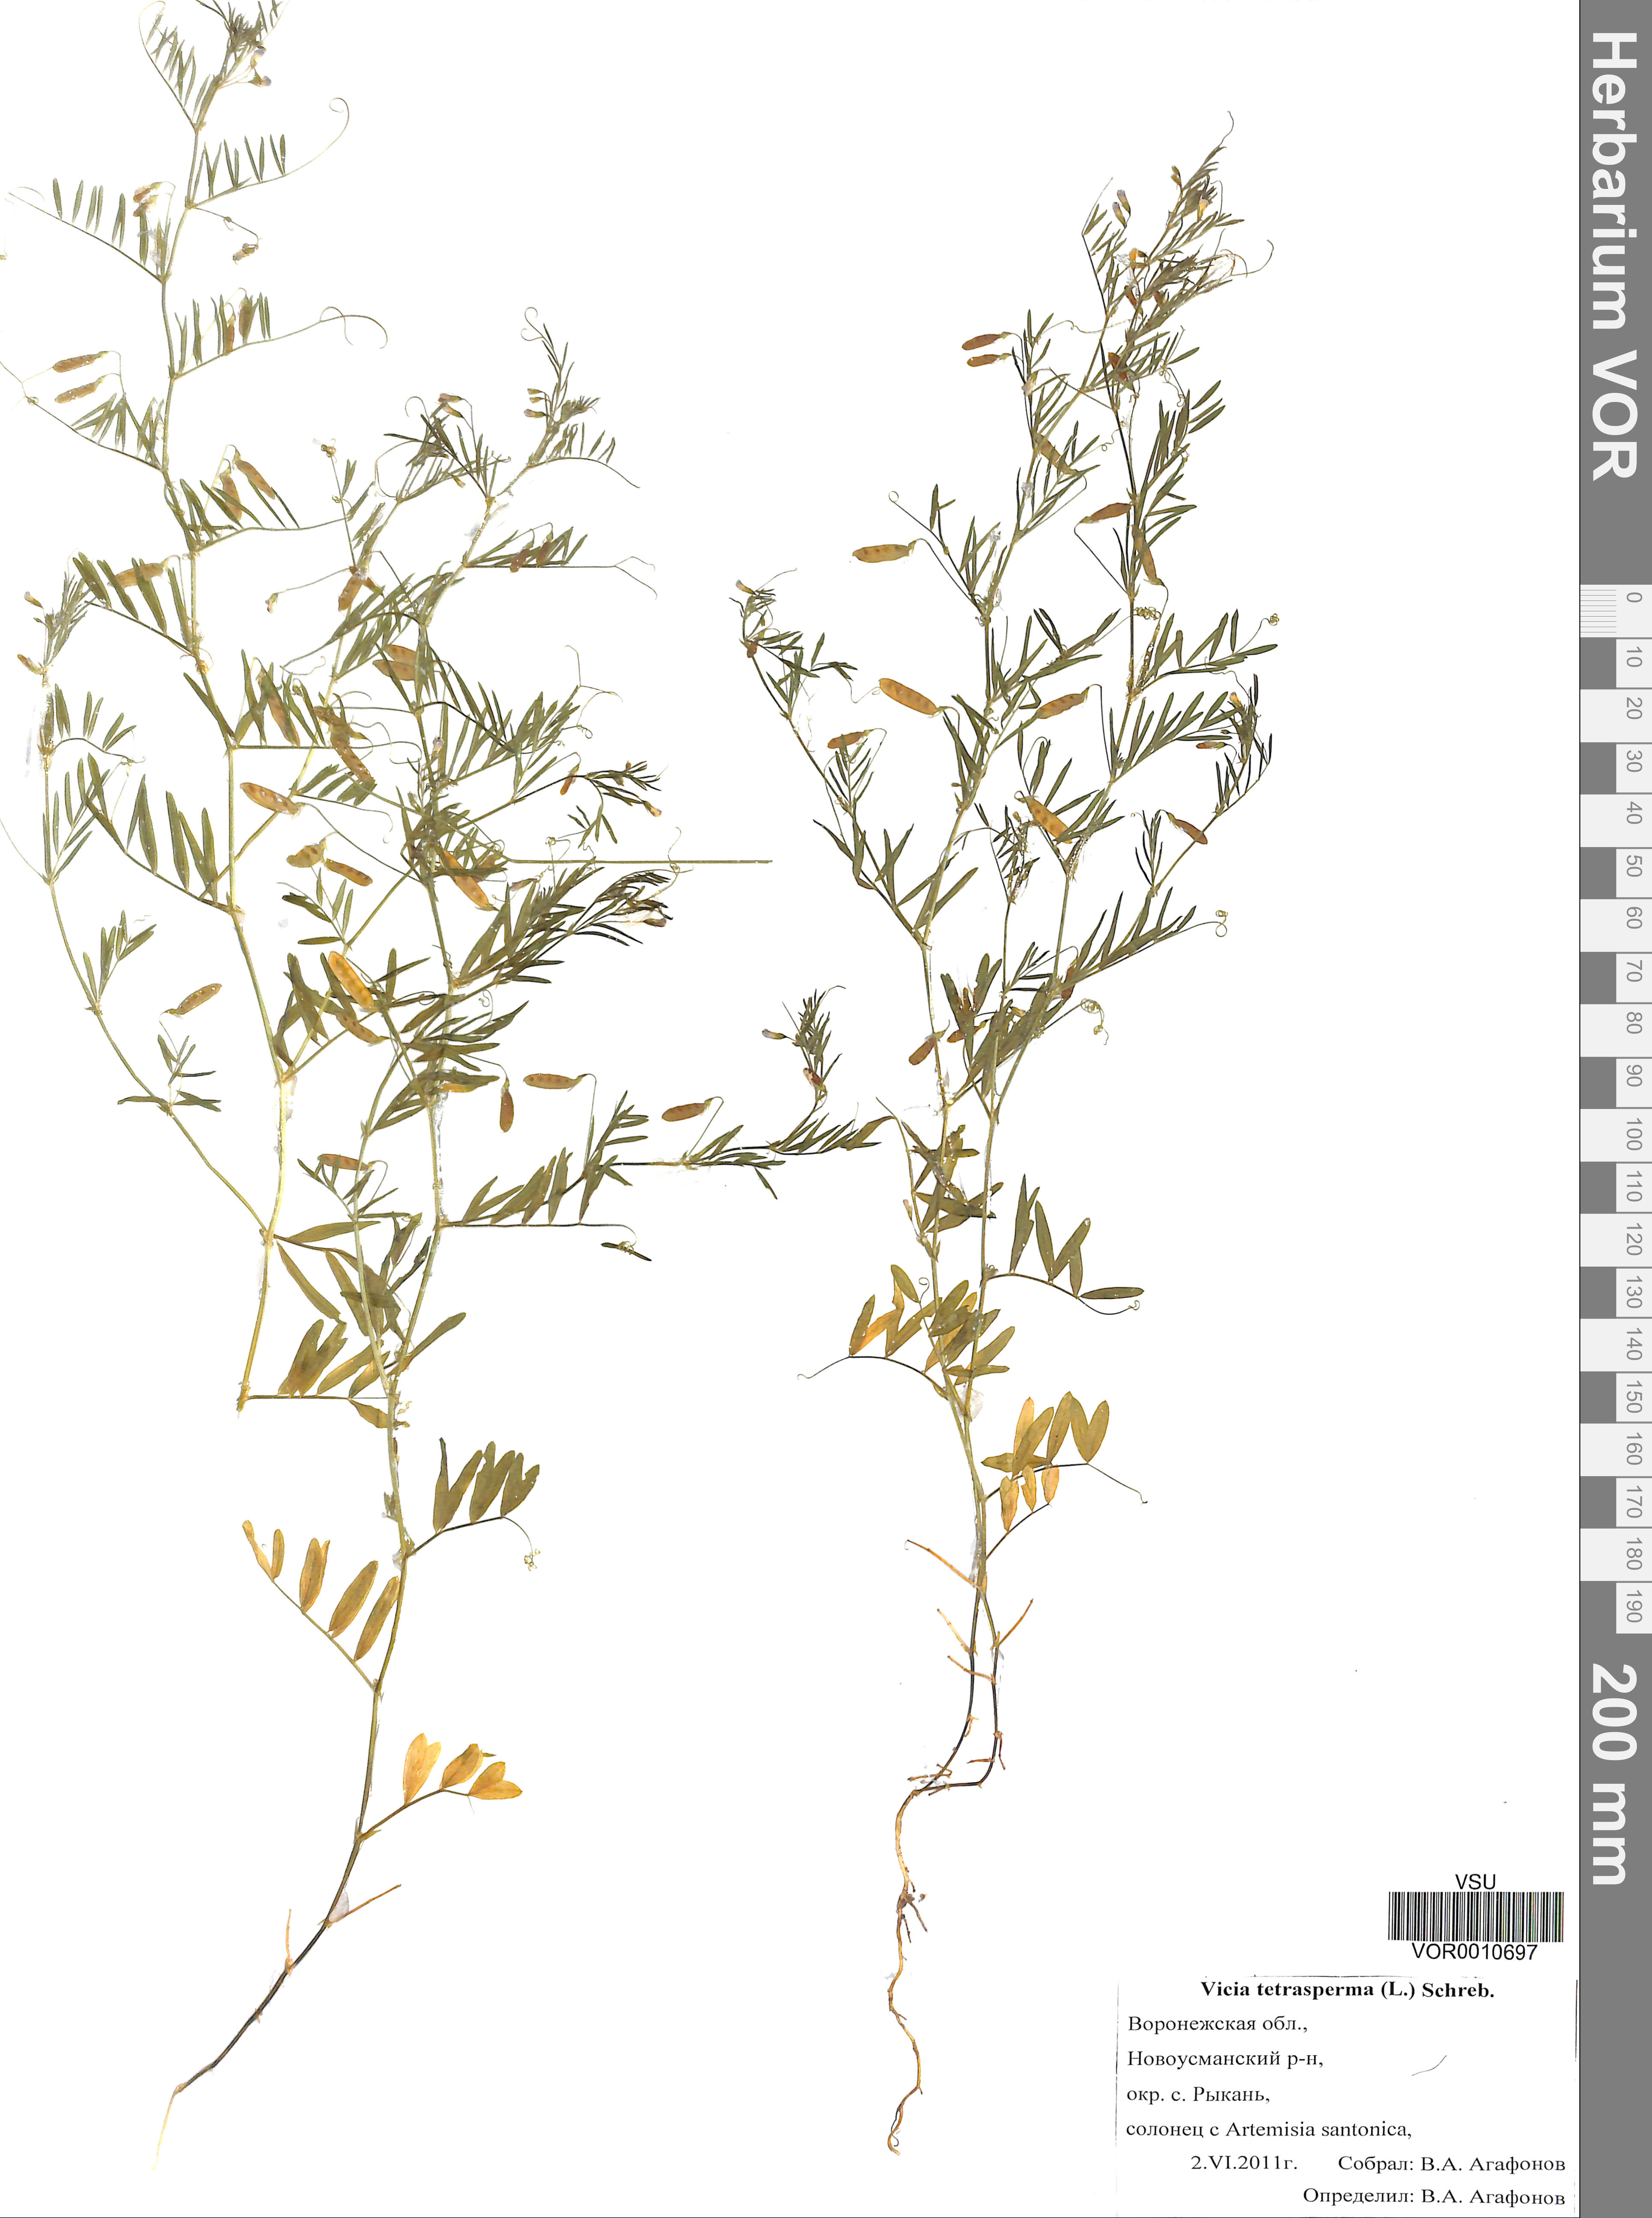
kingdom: Plantae
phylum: Tracheophyta
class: Magnoliopsida
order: Fabales
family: Fabaceae
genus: Vicia
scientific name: Vicia tetrasperma
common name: Smooth tare
